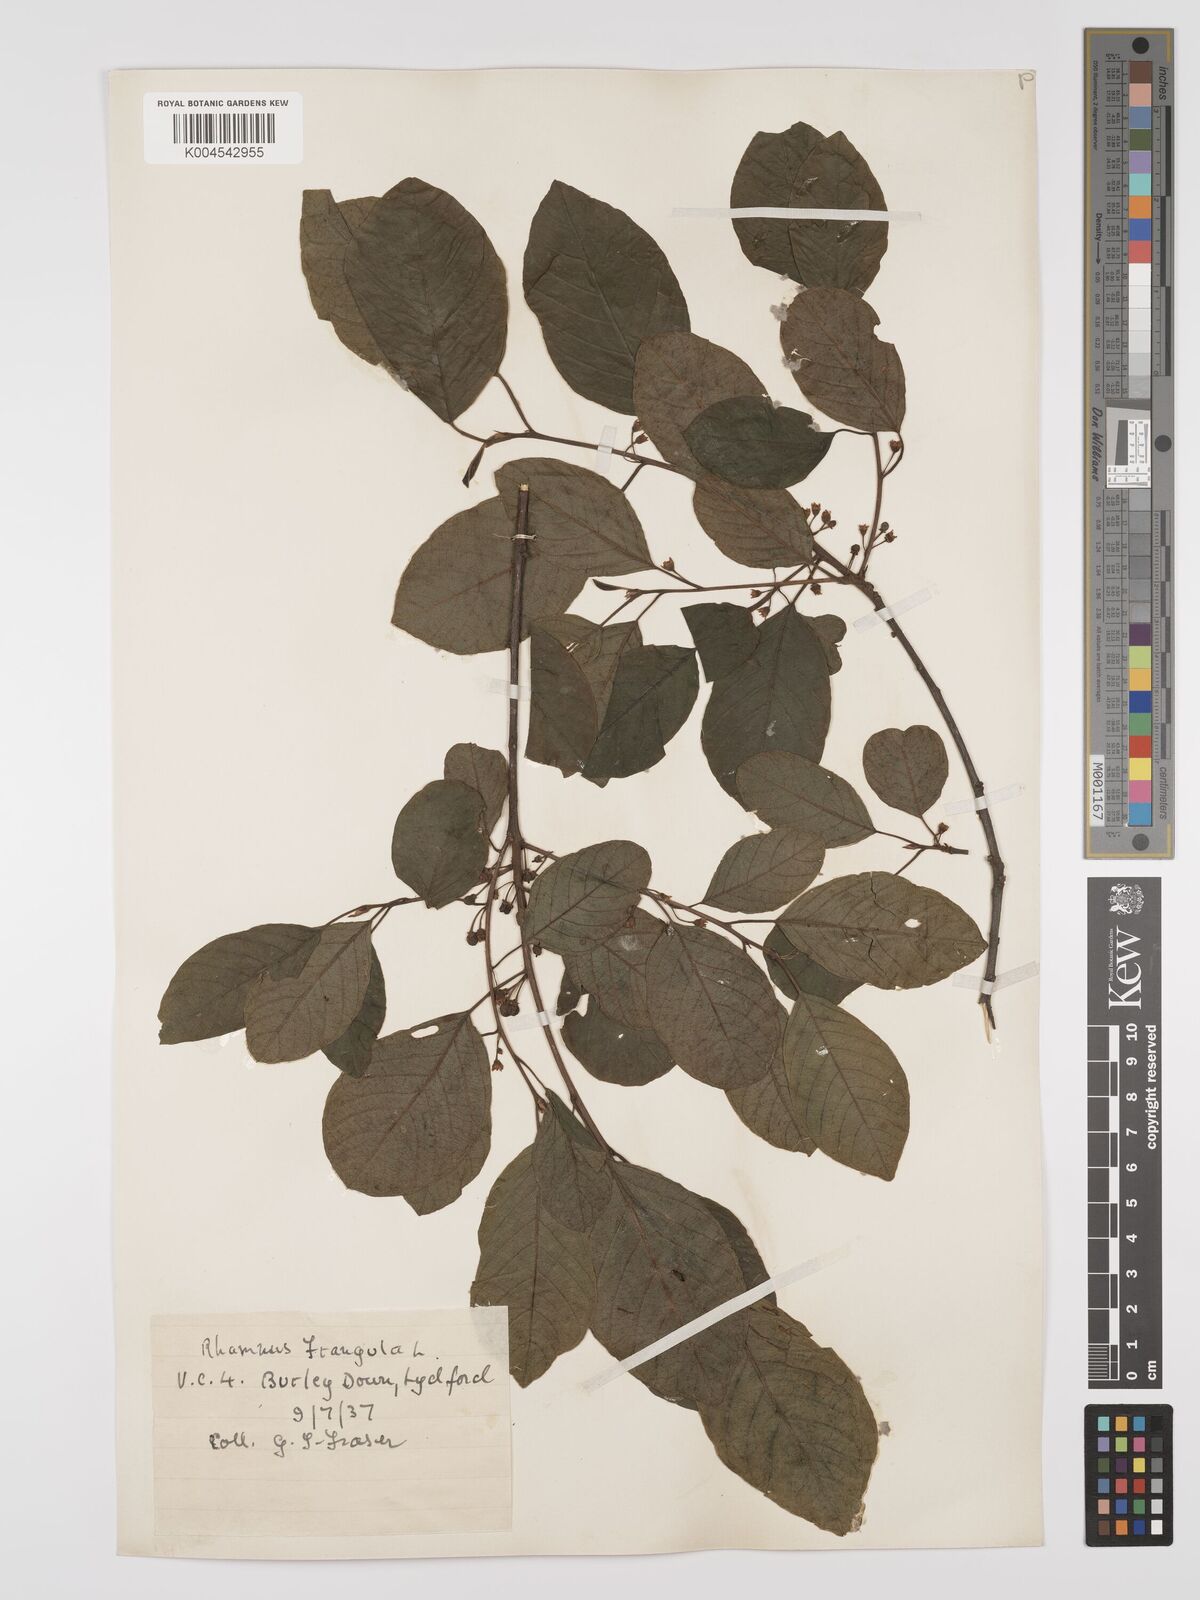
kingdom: Plantae
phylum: Tracheophyta
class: Magnoliopsida
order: Rosales
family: Rhamnaceae
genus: Frangula
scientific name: Frangula alnus
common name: Alder buckthorn
